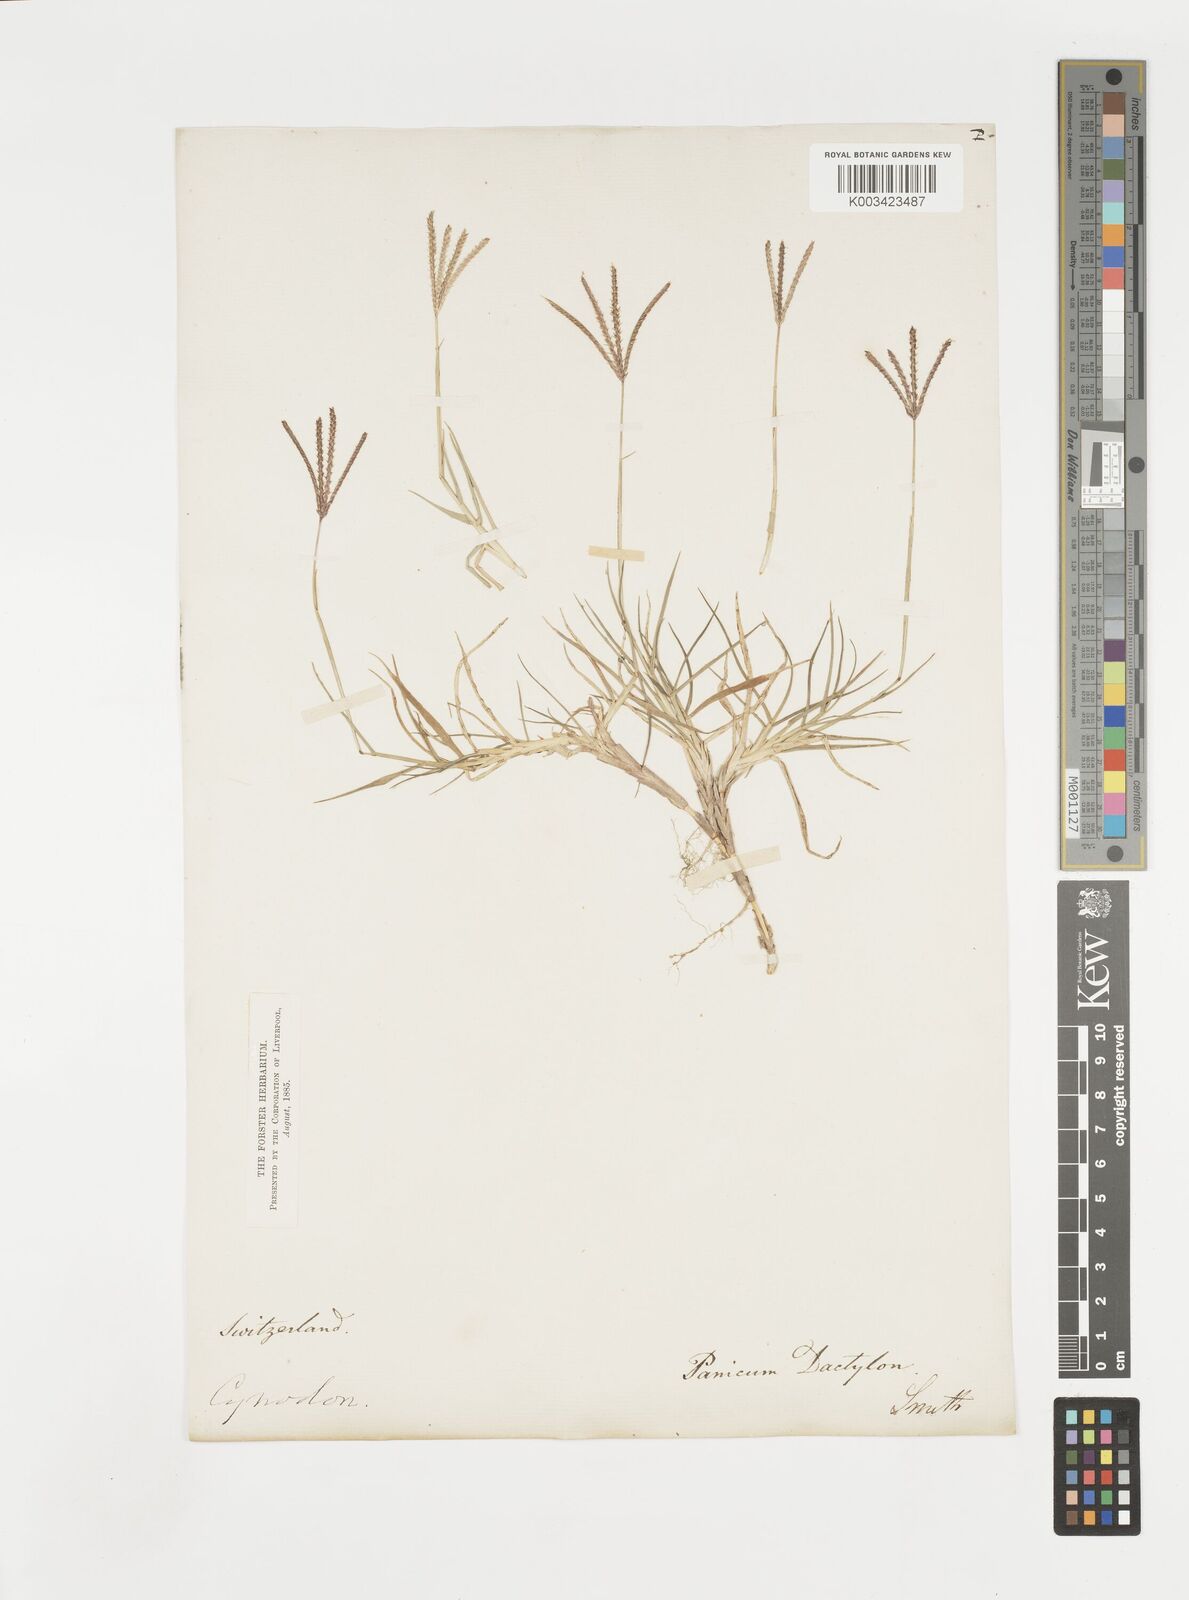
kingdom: Plantae
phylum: Tracheophyta
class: Liliopsida
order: Poales
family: Poaceae
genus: Cynodon
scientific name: Cynodon dactylon
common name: Bermuda grass
